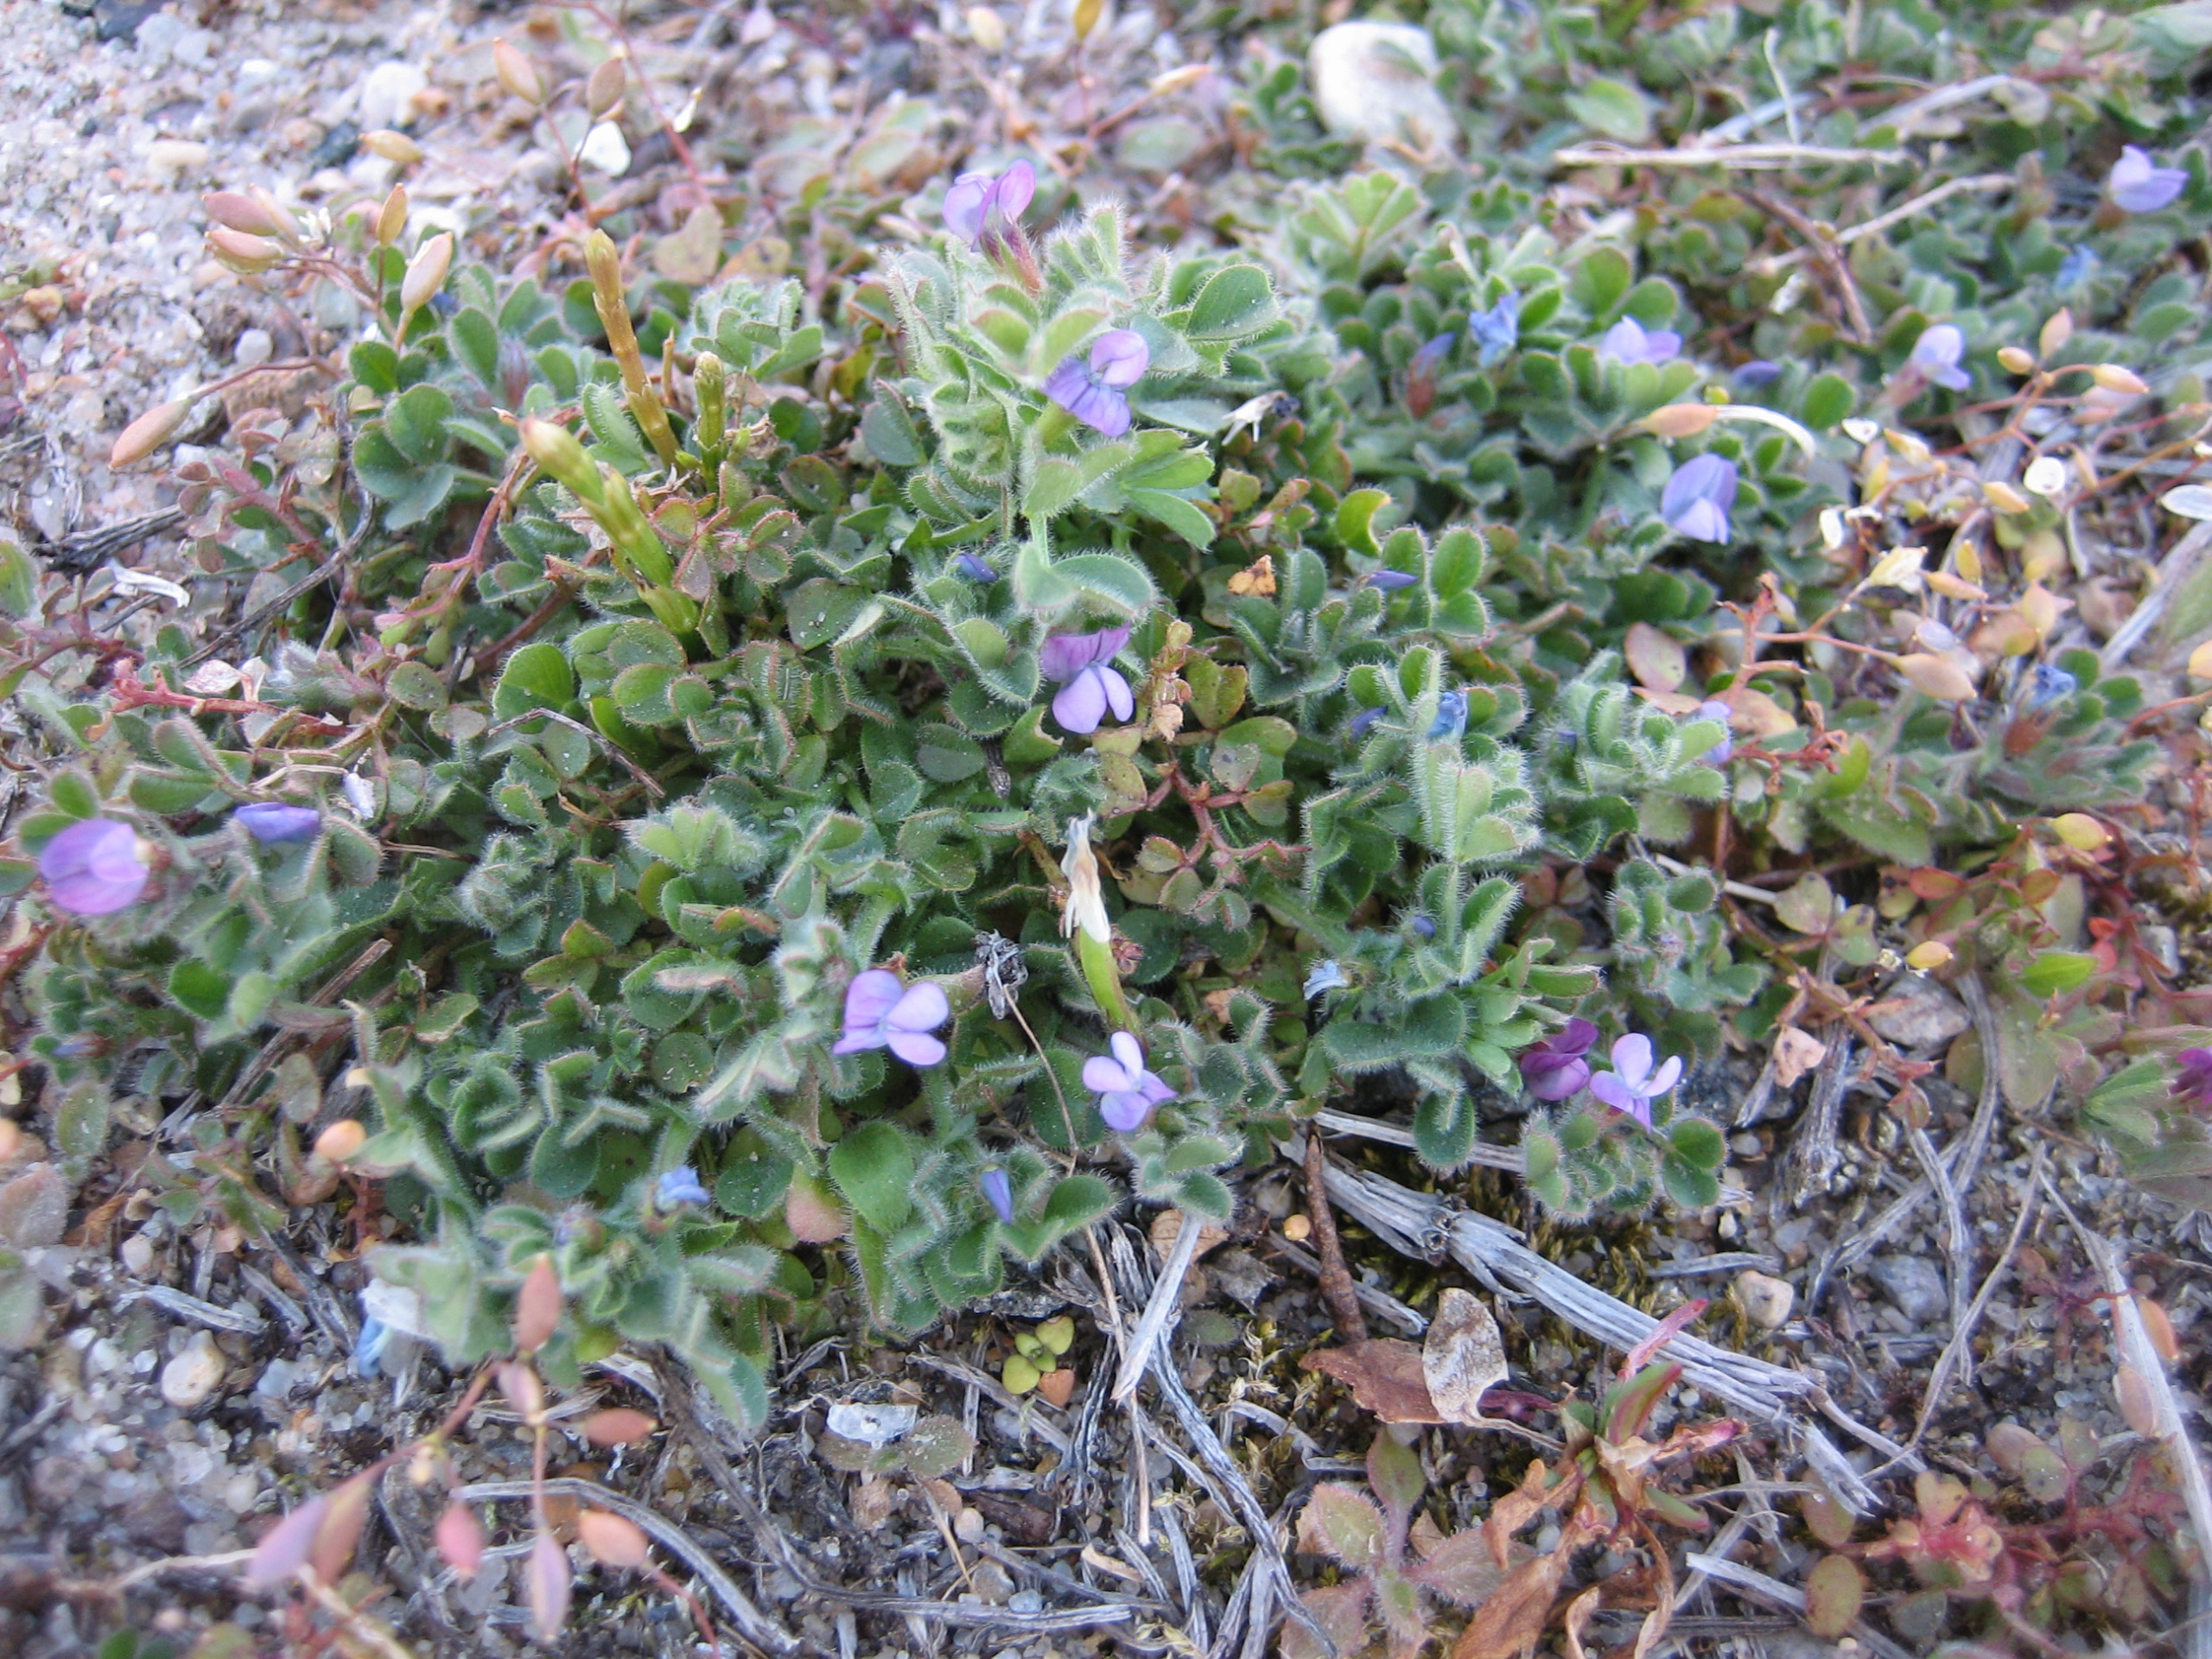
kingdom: Plantae
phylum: Tracheophyta
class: Magnoliopsida
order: Fabales
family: Fabaceae
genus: Vicia
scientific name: Vicia lathyroides
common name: Vår-vikke
